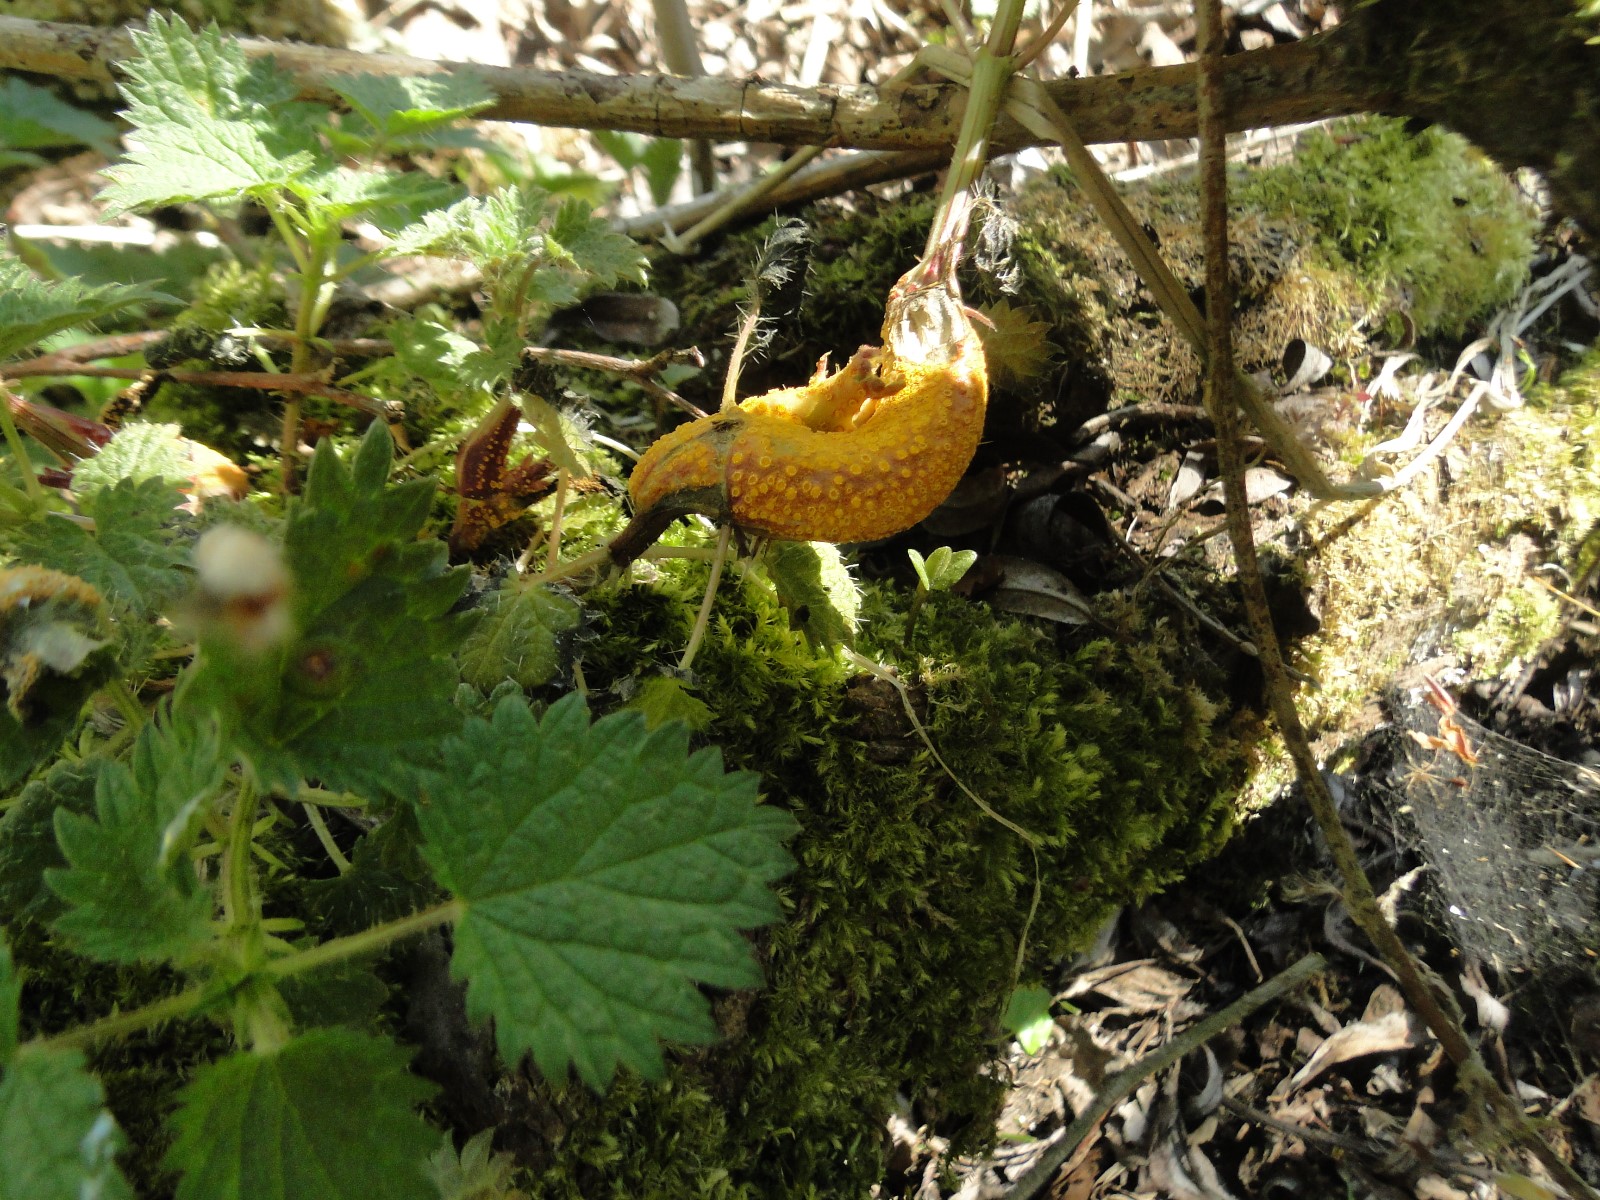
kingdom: Fungi
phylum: Basidiomycota
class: Pucciniomycetes
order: Pucciniales
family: Pucciniaceae
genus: Puccinia
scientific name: Puccinia urticata
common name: nældegalle-tvecellerust
